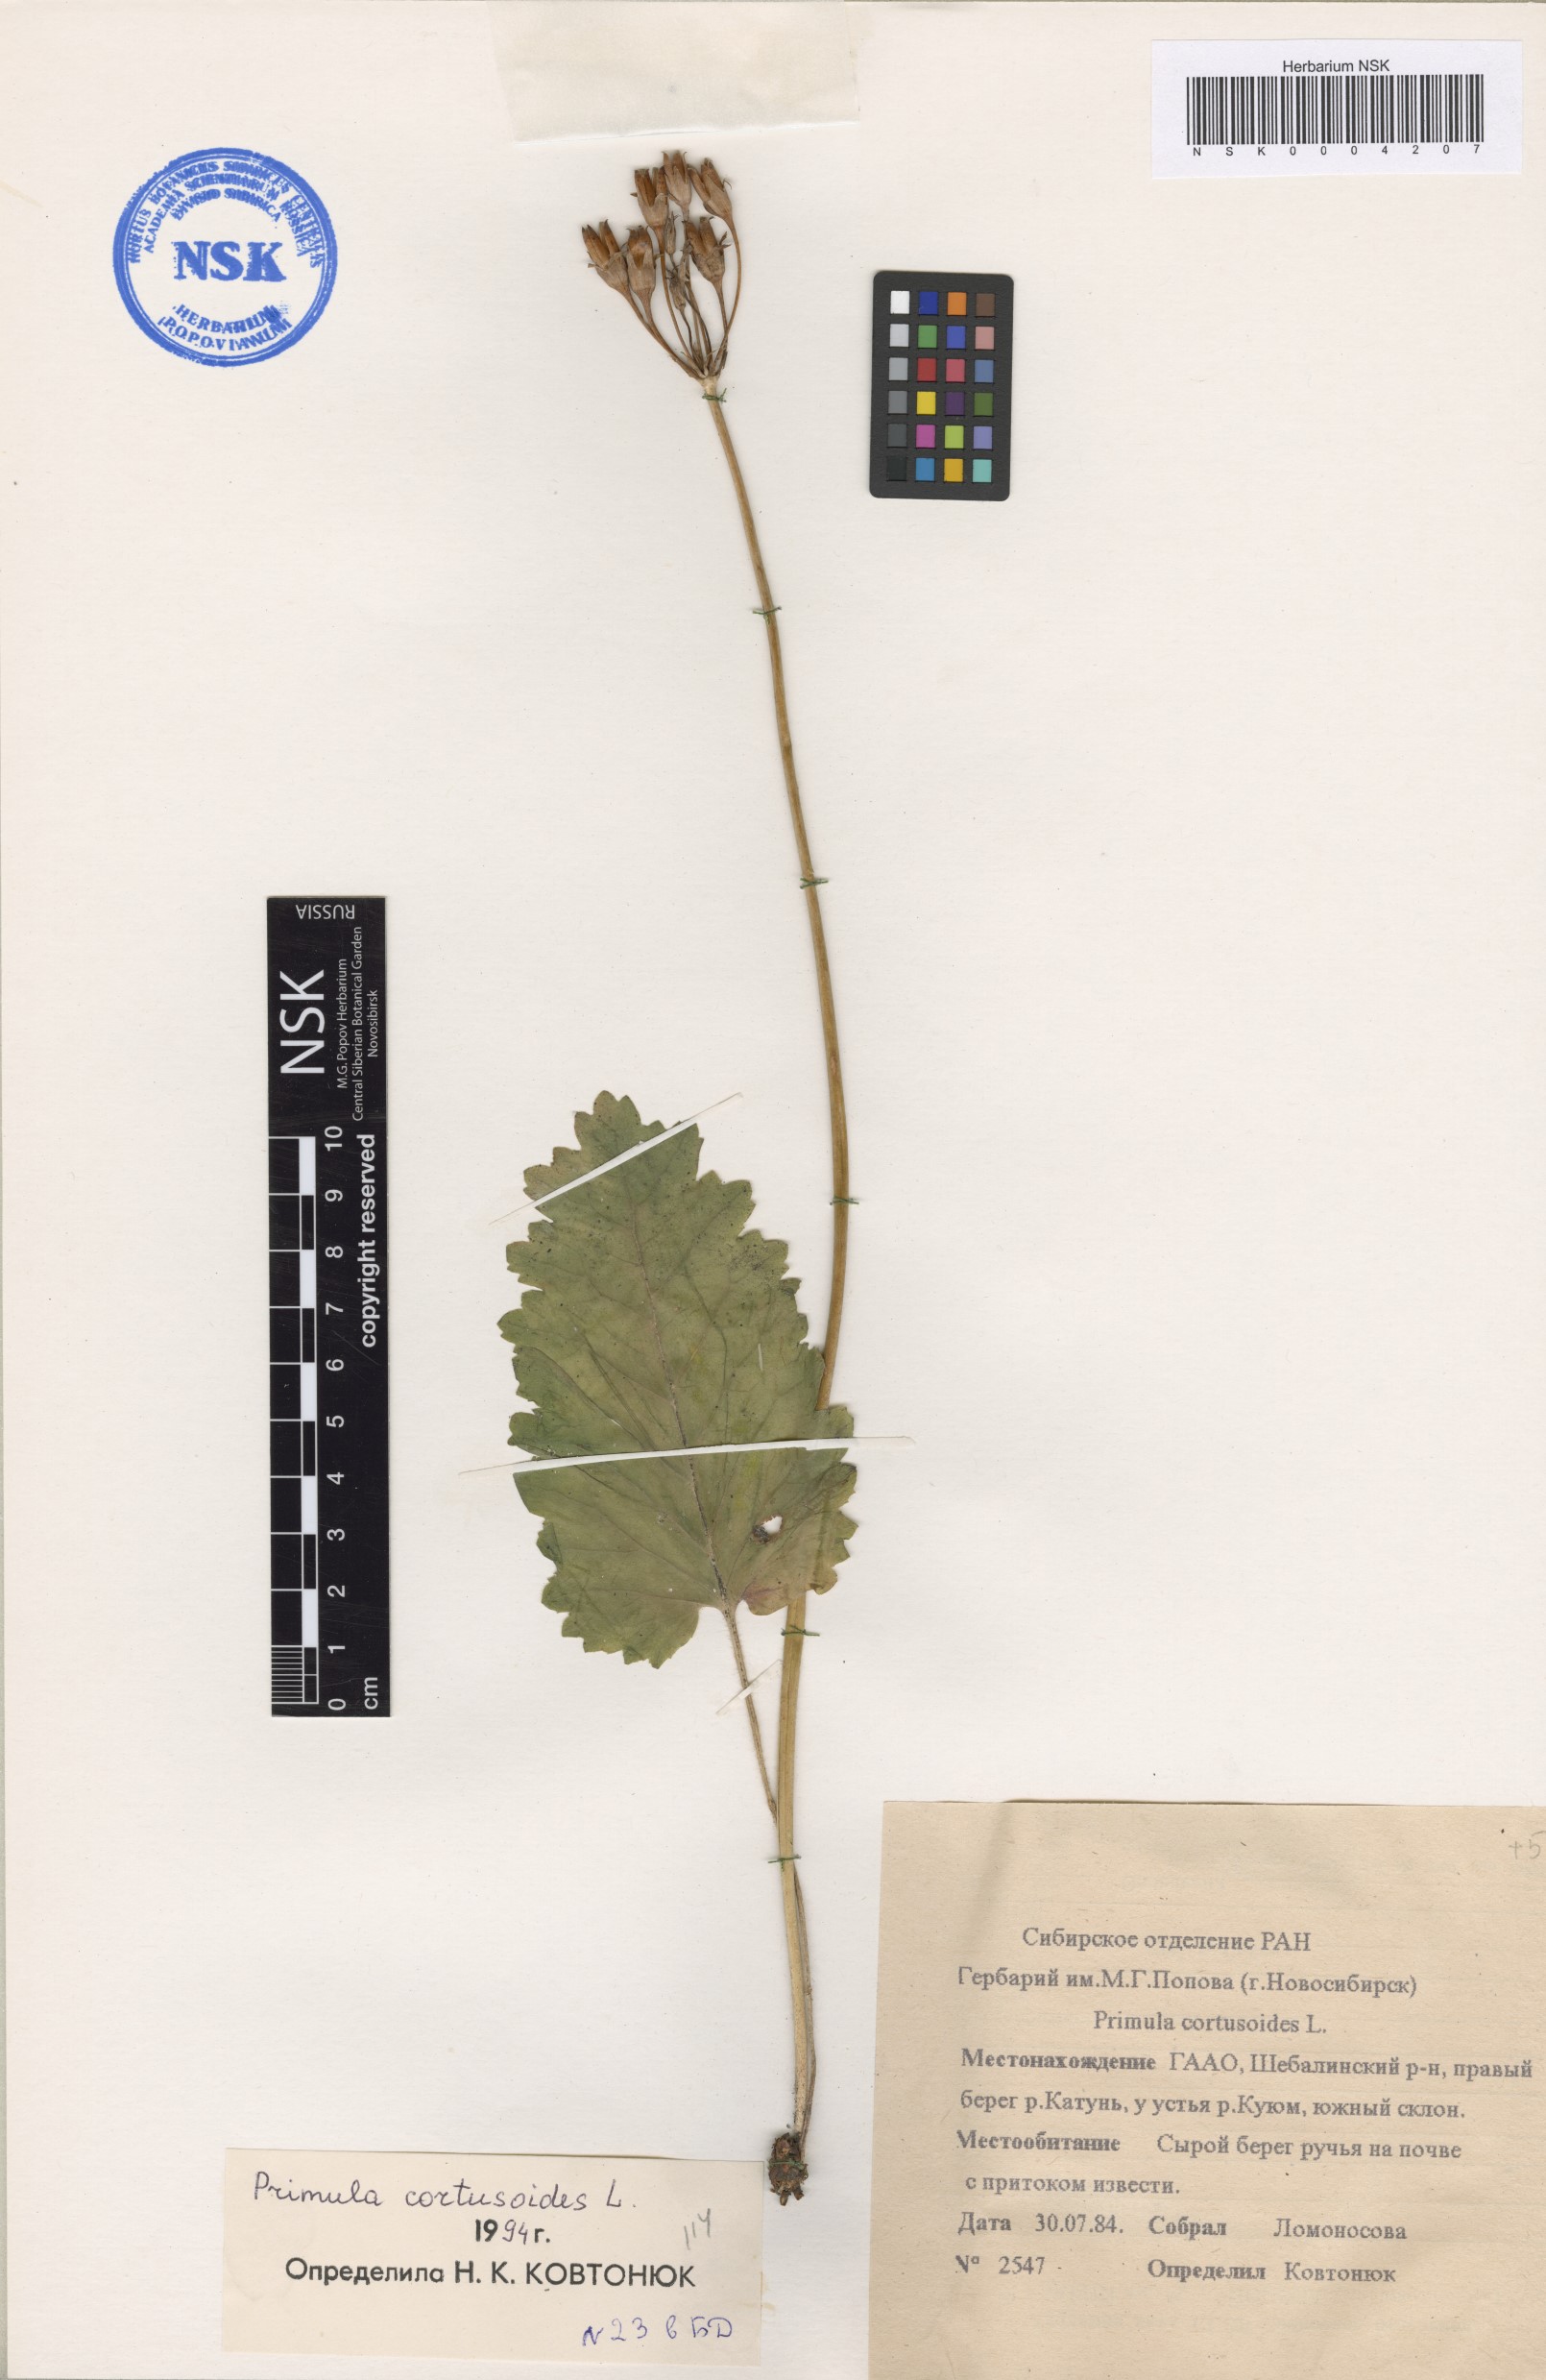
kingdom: Plantae
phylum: Tracheophyta
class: Magnoliopsida
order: Ericales
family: Primulaceae
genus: Primula
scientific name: Primula cortusoides
